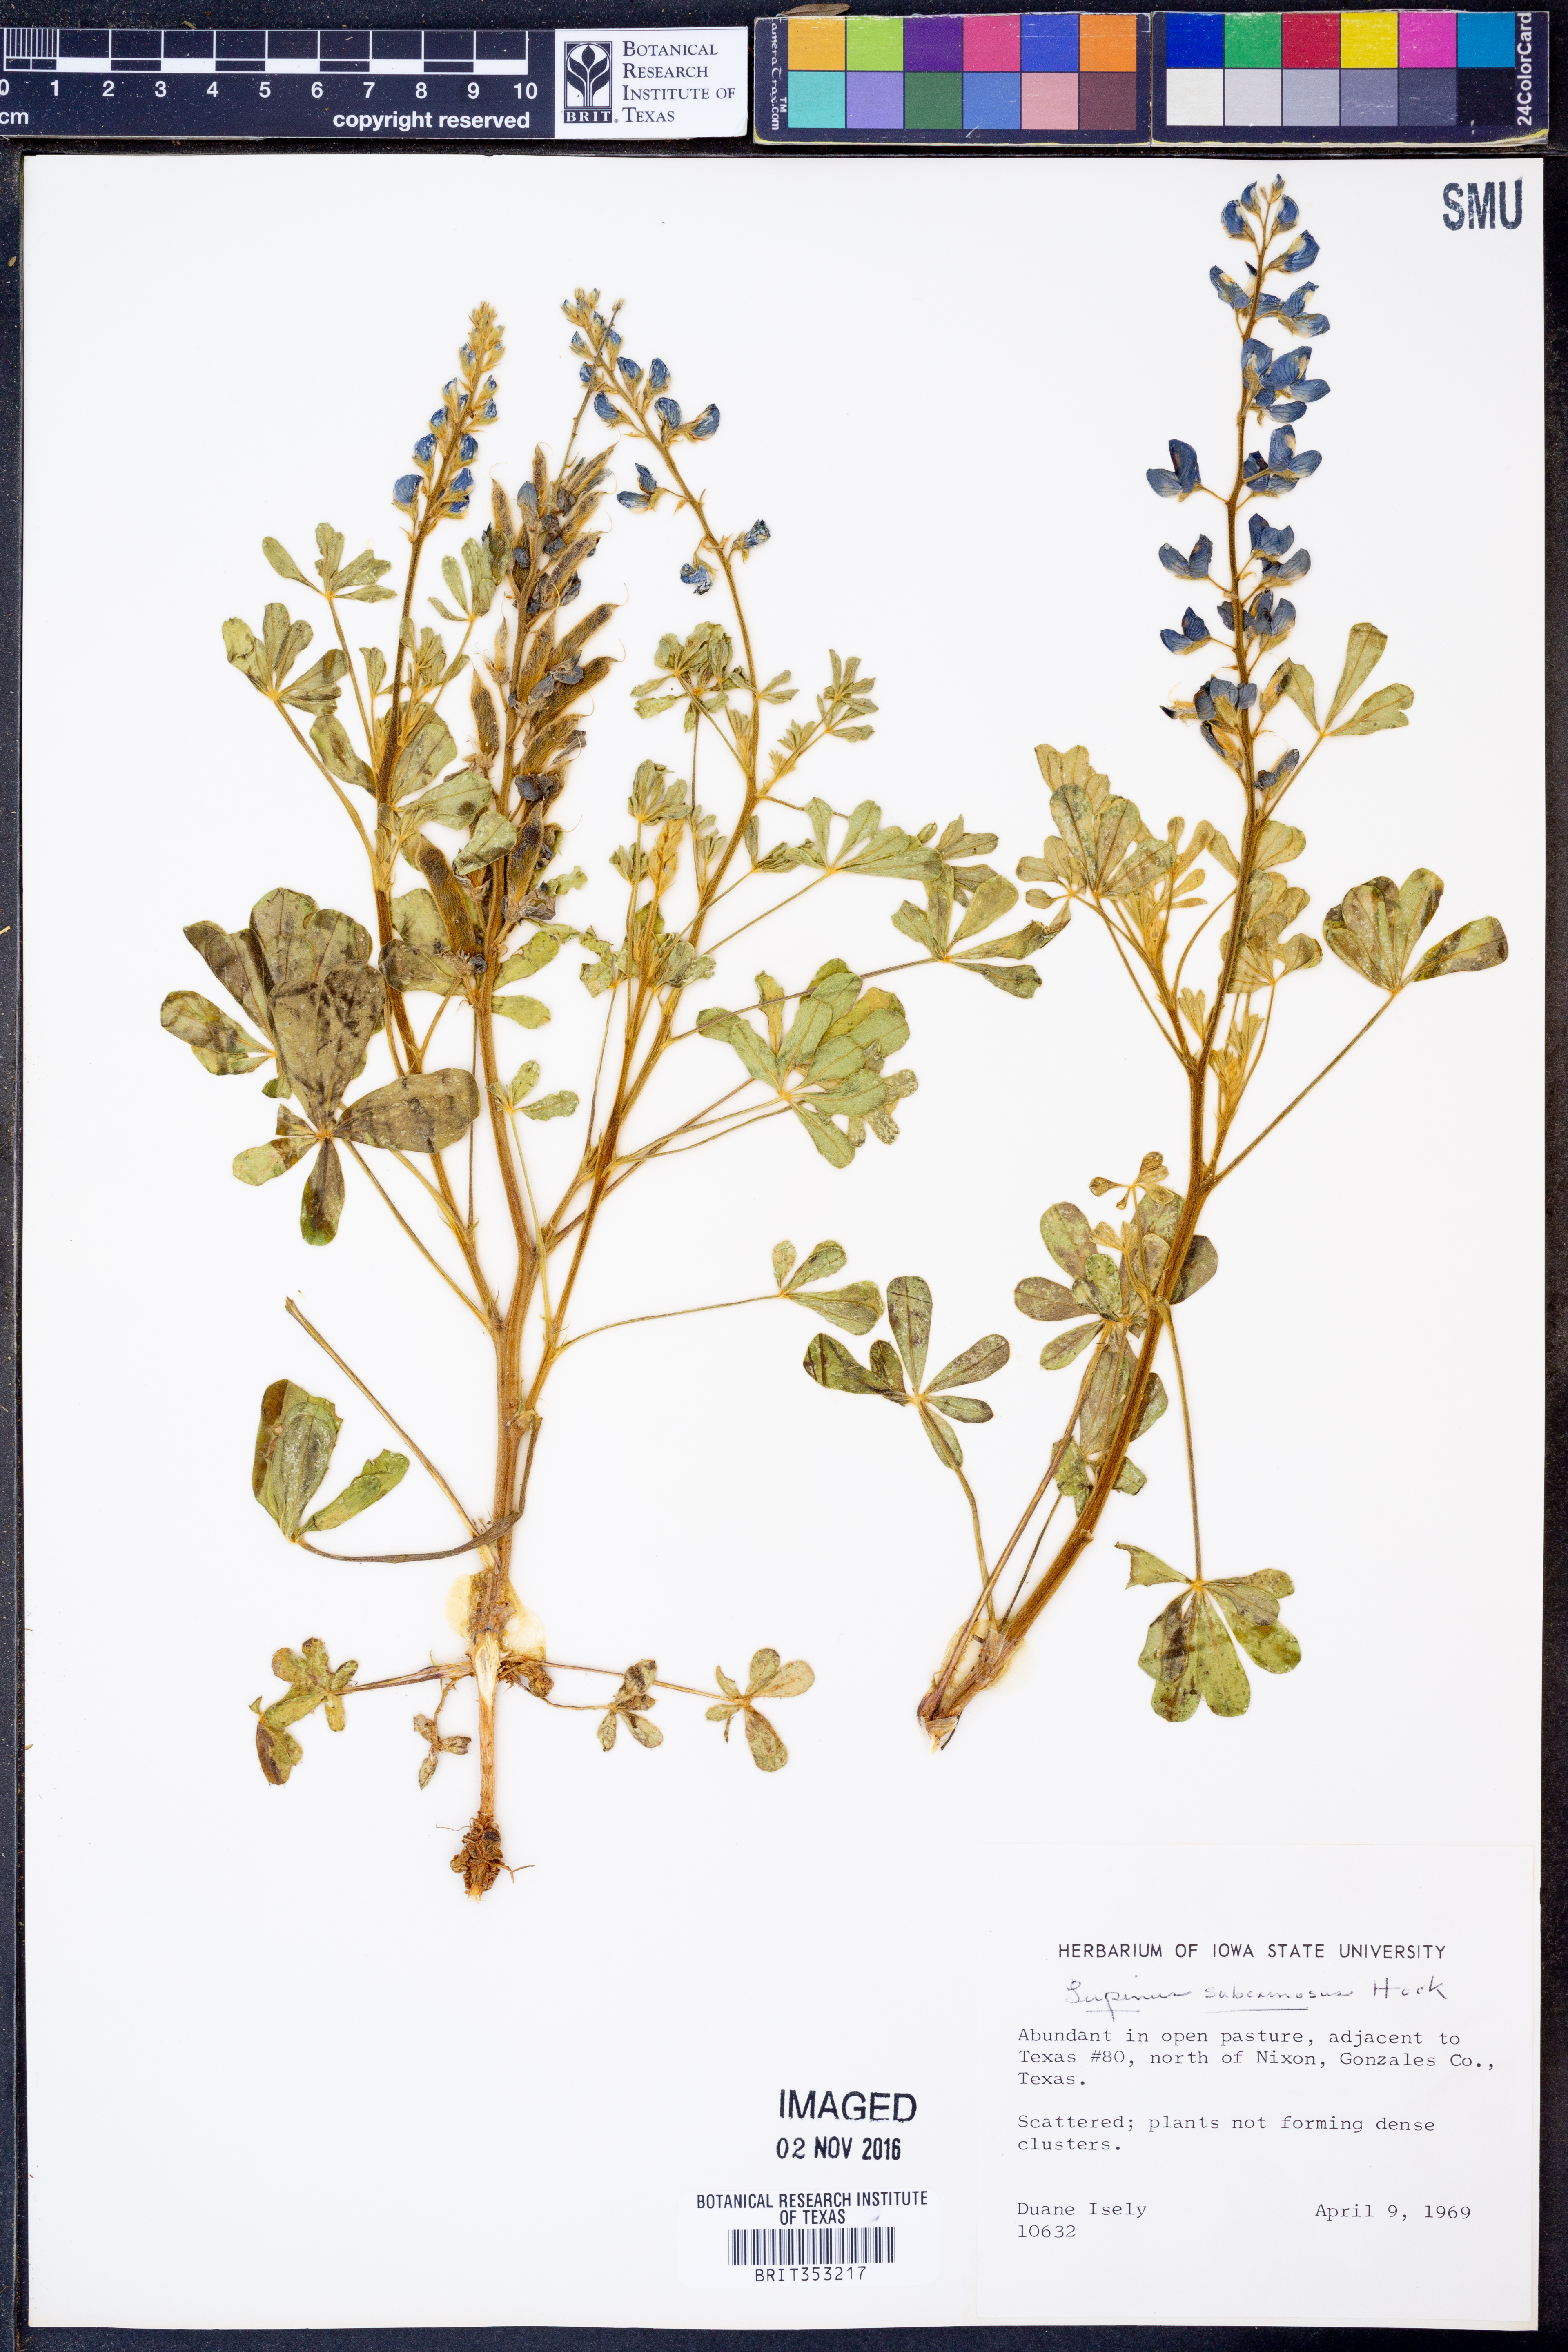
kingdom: Plantae
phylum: Tracheophyta
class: Magnoliopsida
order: Fabales
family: Fabaceae
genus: Lupinus
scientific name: Lupinus subcarnosus
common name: Texas bluebonnet
